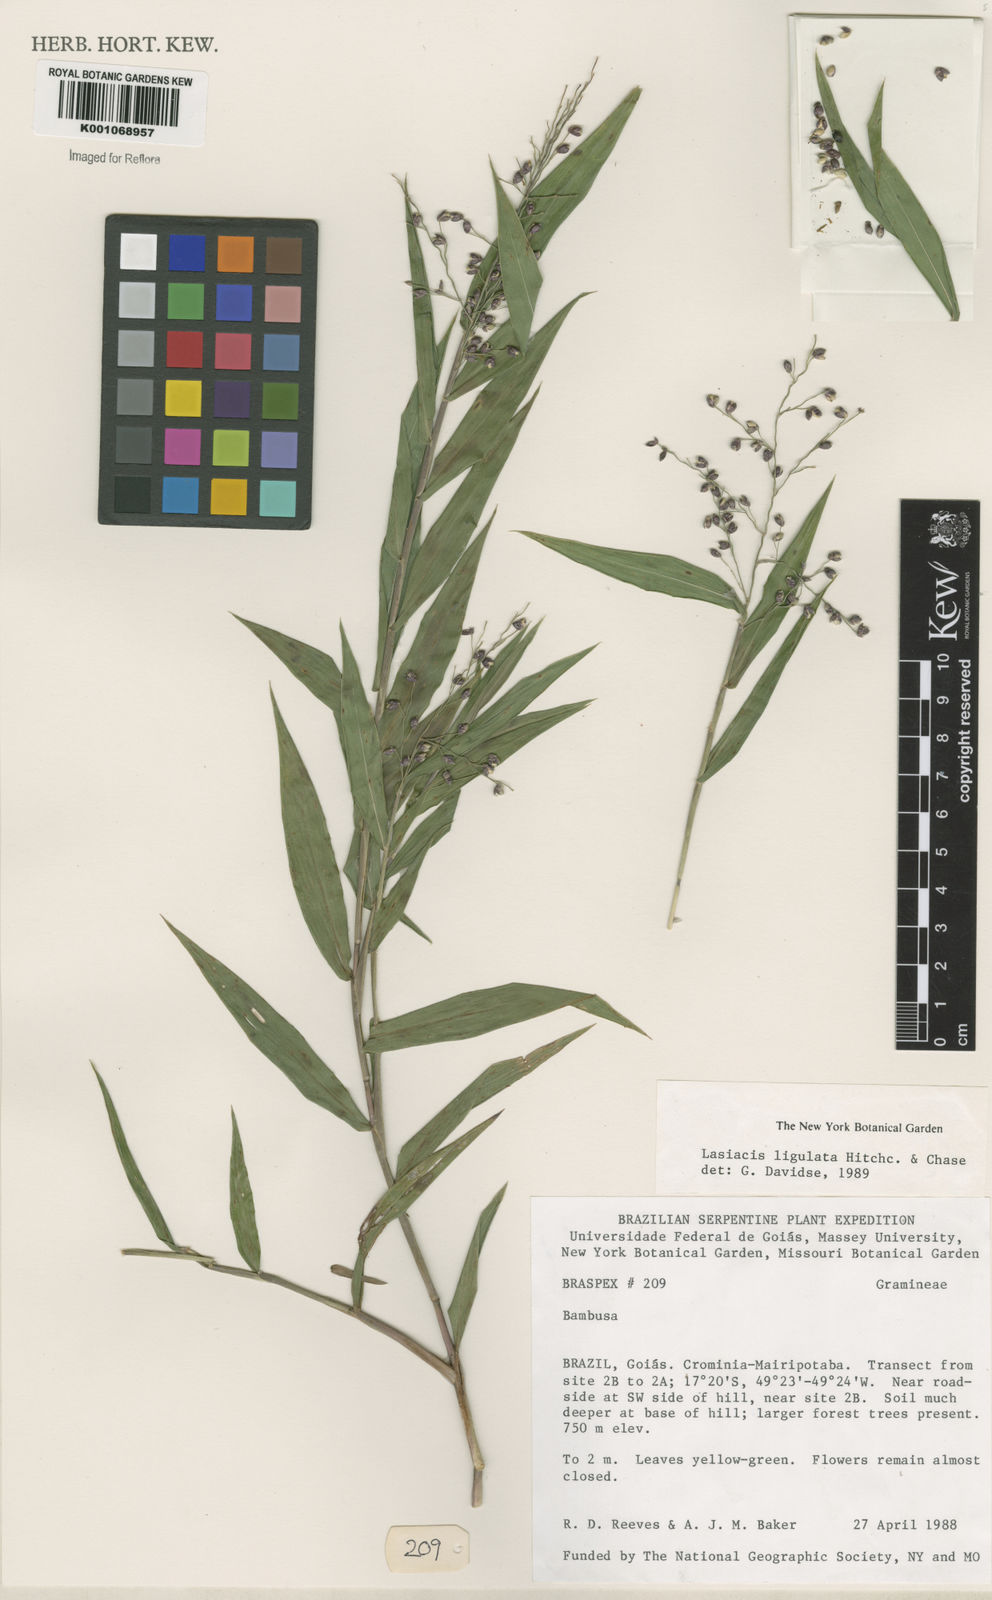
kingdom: Plantae
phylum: Tracheophyta
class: Liliopsida
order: Poales
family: Poaceae
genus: Lasiacis
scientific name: Lasiacis ligulata
